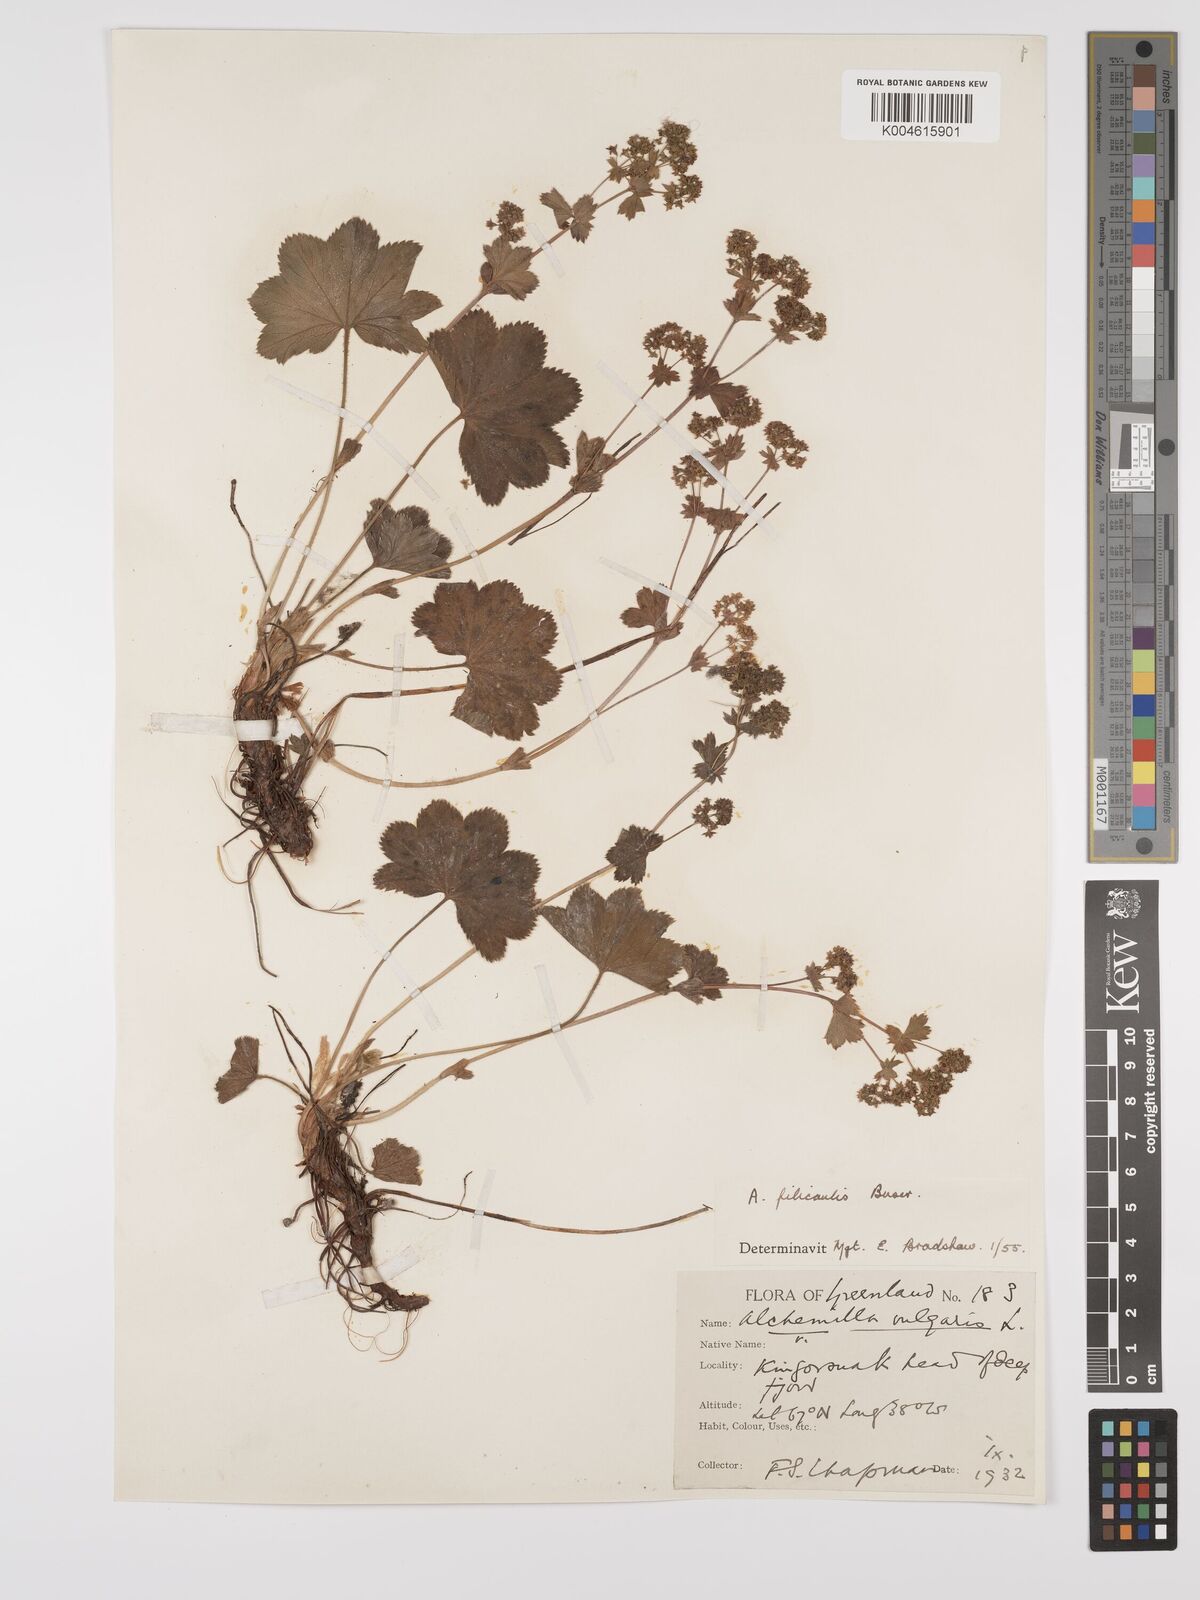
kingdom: Plantae
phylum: Tracheophyta
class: Magnoliopsida
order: Rosales
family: Rosaceae
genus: Alchemilla
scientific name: Alchemilla vulgaris
